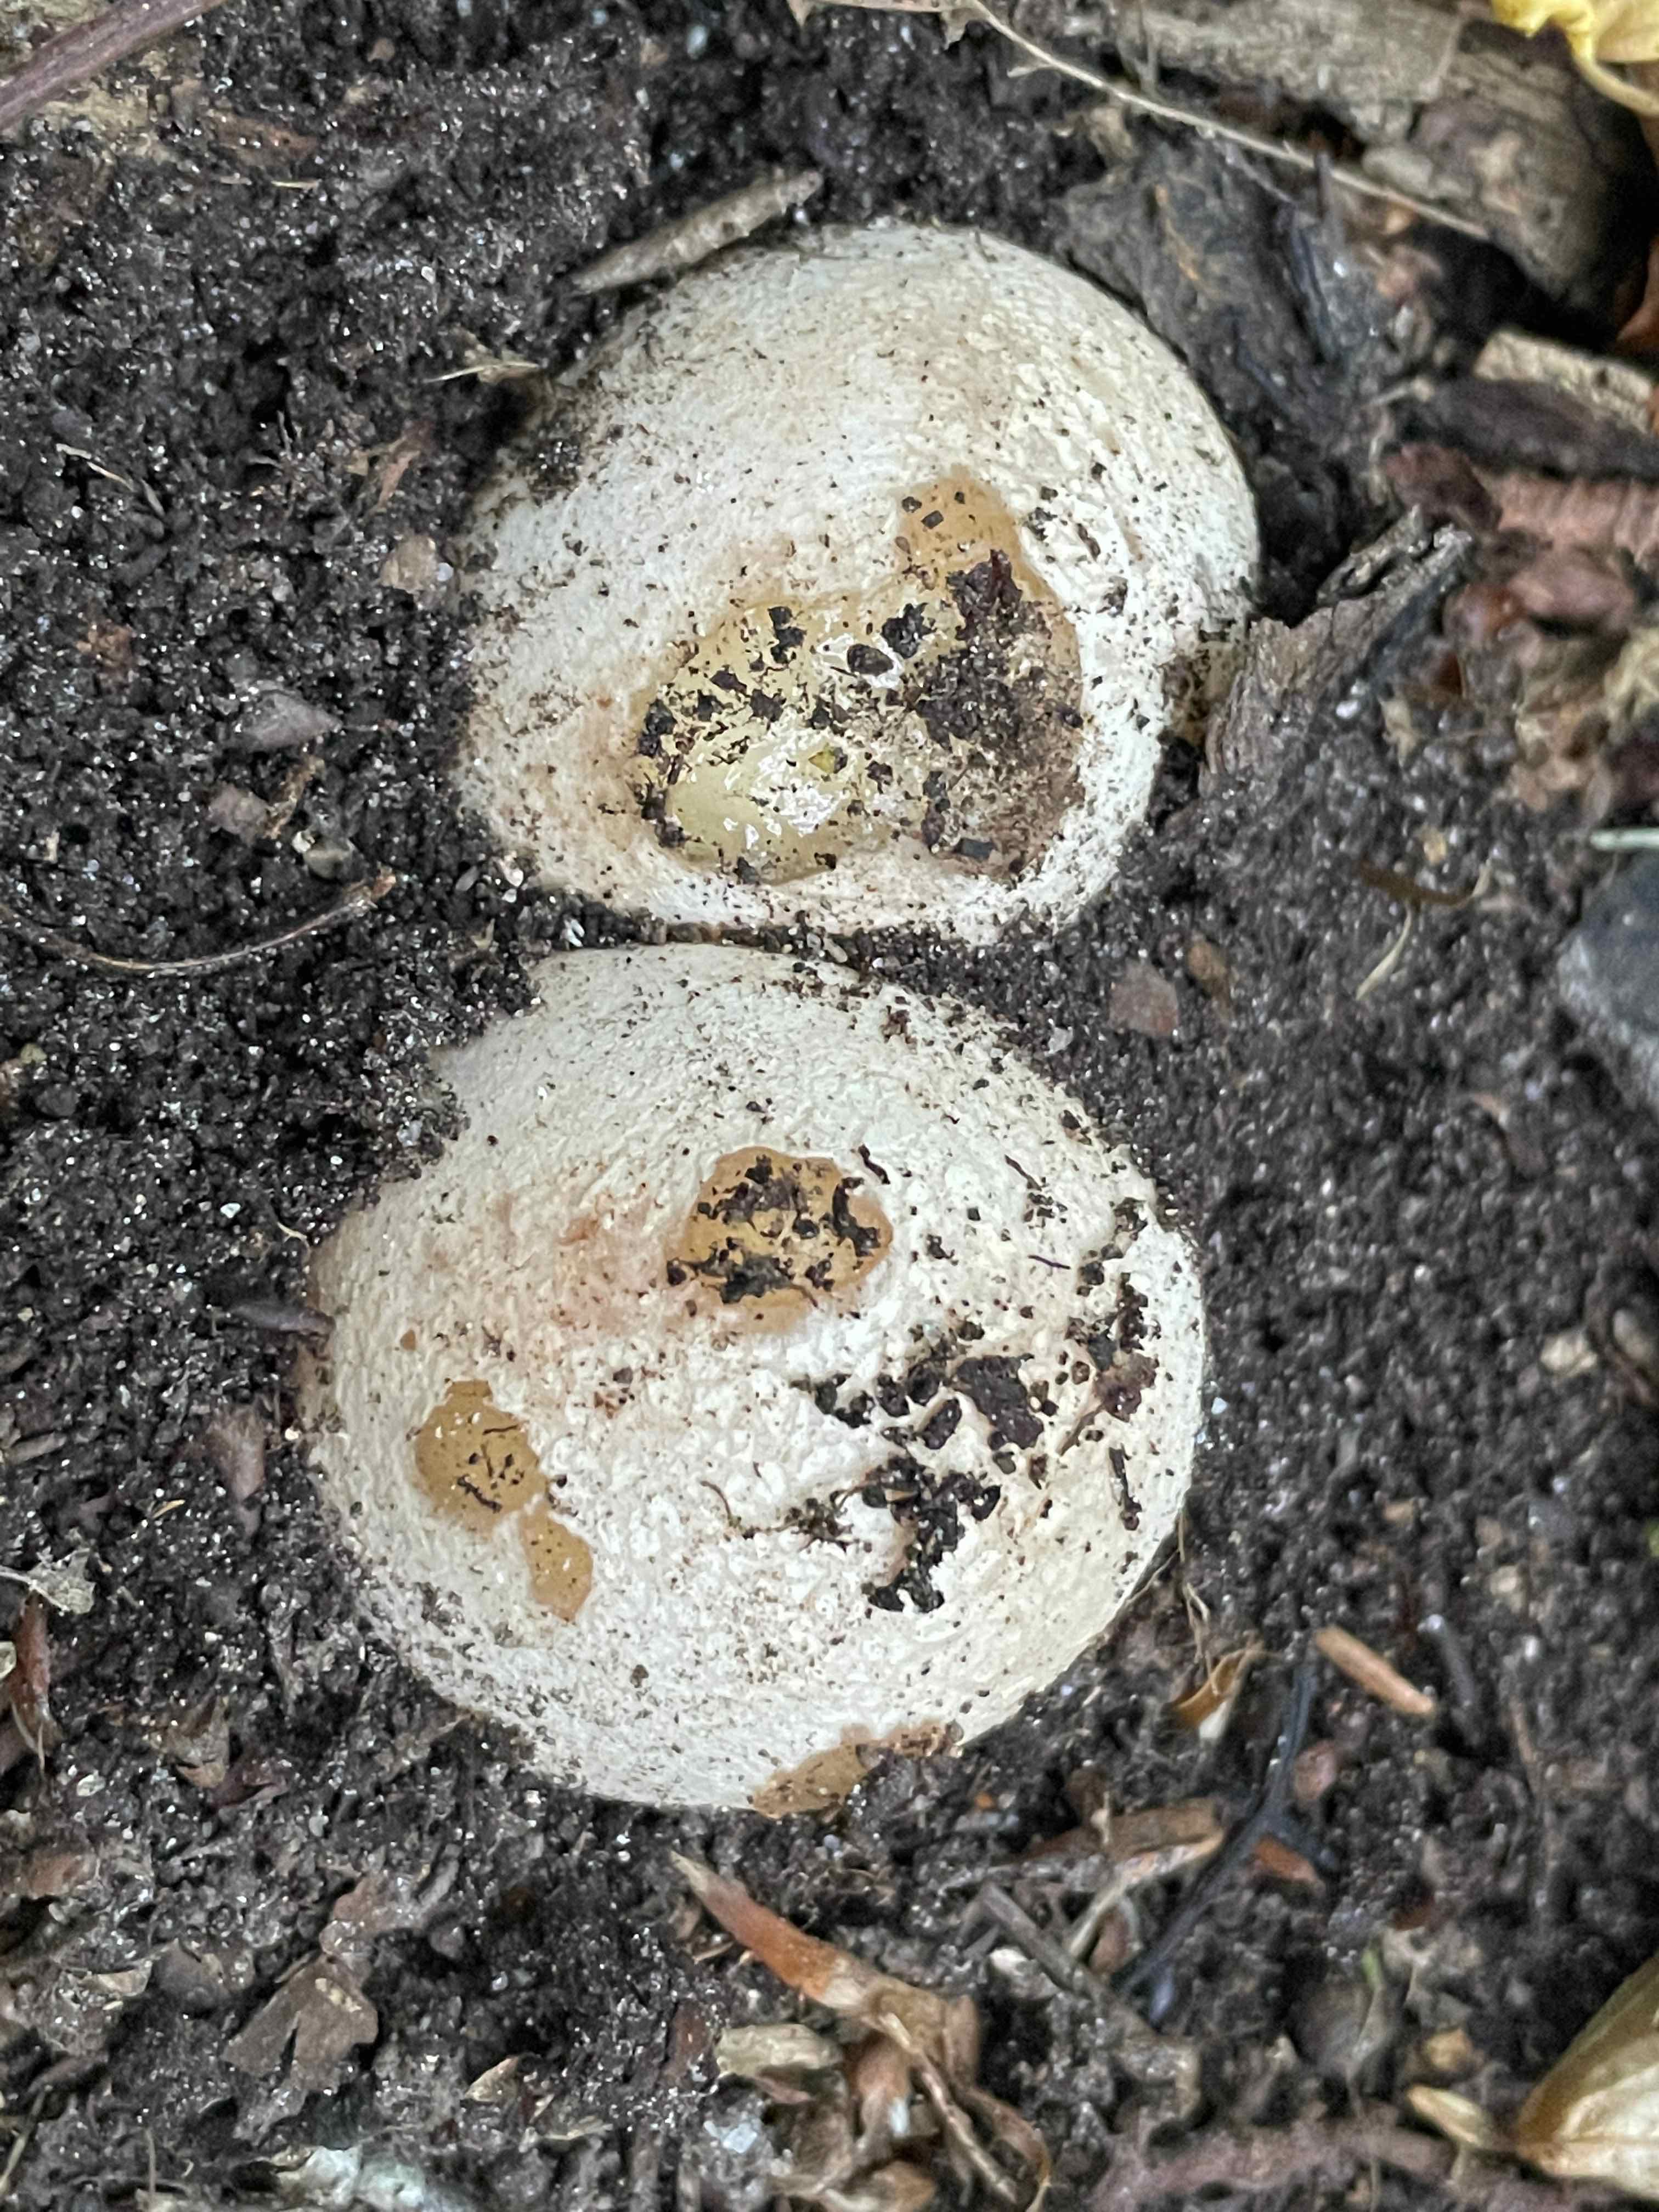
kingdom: Fungi
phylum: Basidiomycota
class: Agaricomycetes
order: Phallales
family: Phallaceae
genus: Phallus
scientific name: Phallus impudicus
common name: almindelig stinksvamp
